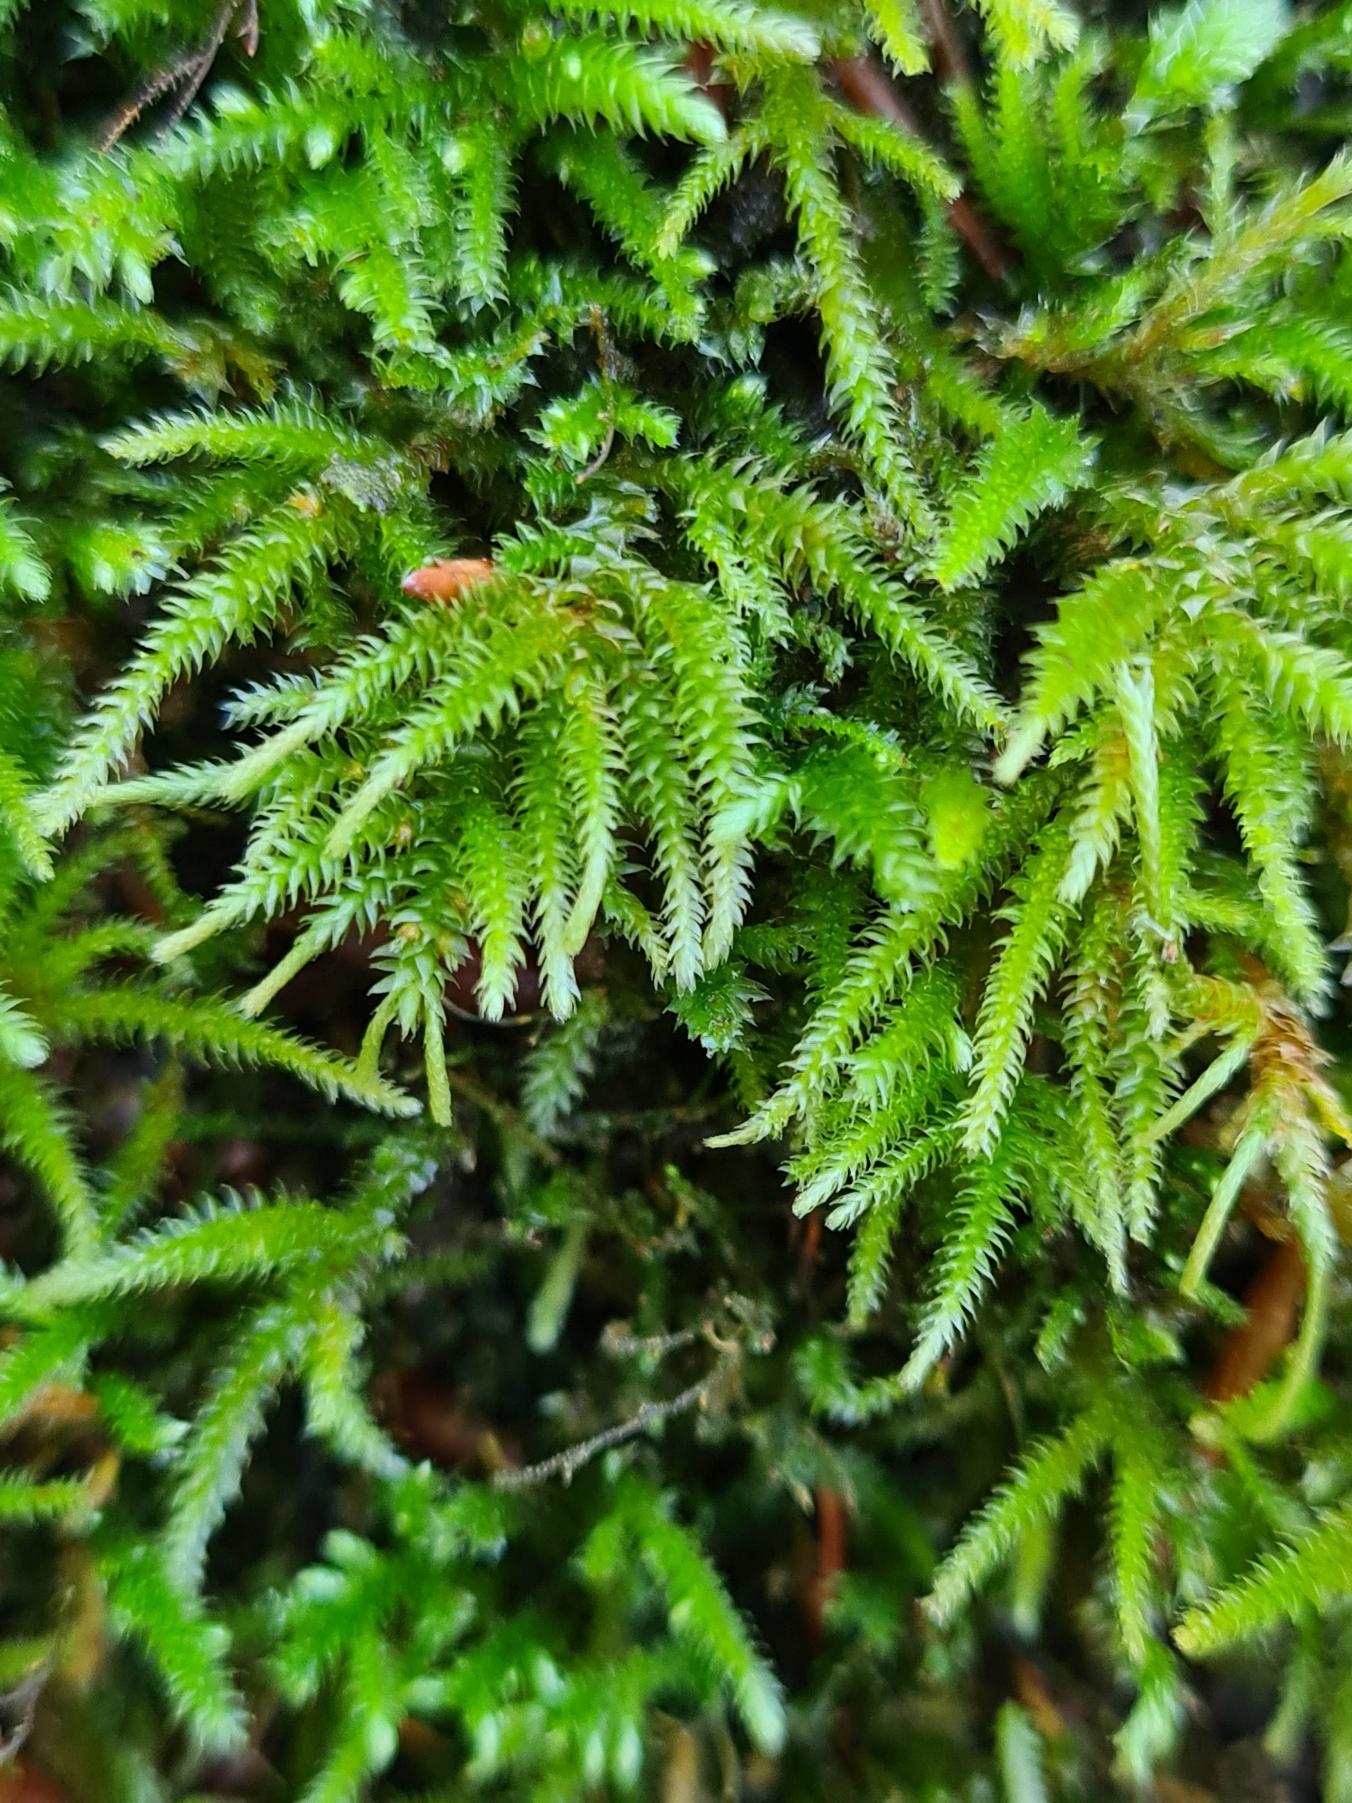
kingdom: Plantae
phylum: Bryophyta
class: Bryopsida
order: Hypnales
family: Lembophyllaceae
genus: Nogopterium
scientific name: Nogopterium gracile
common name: Tæt fugleklomos
